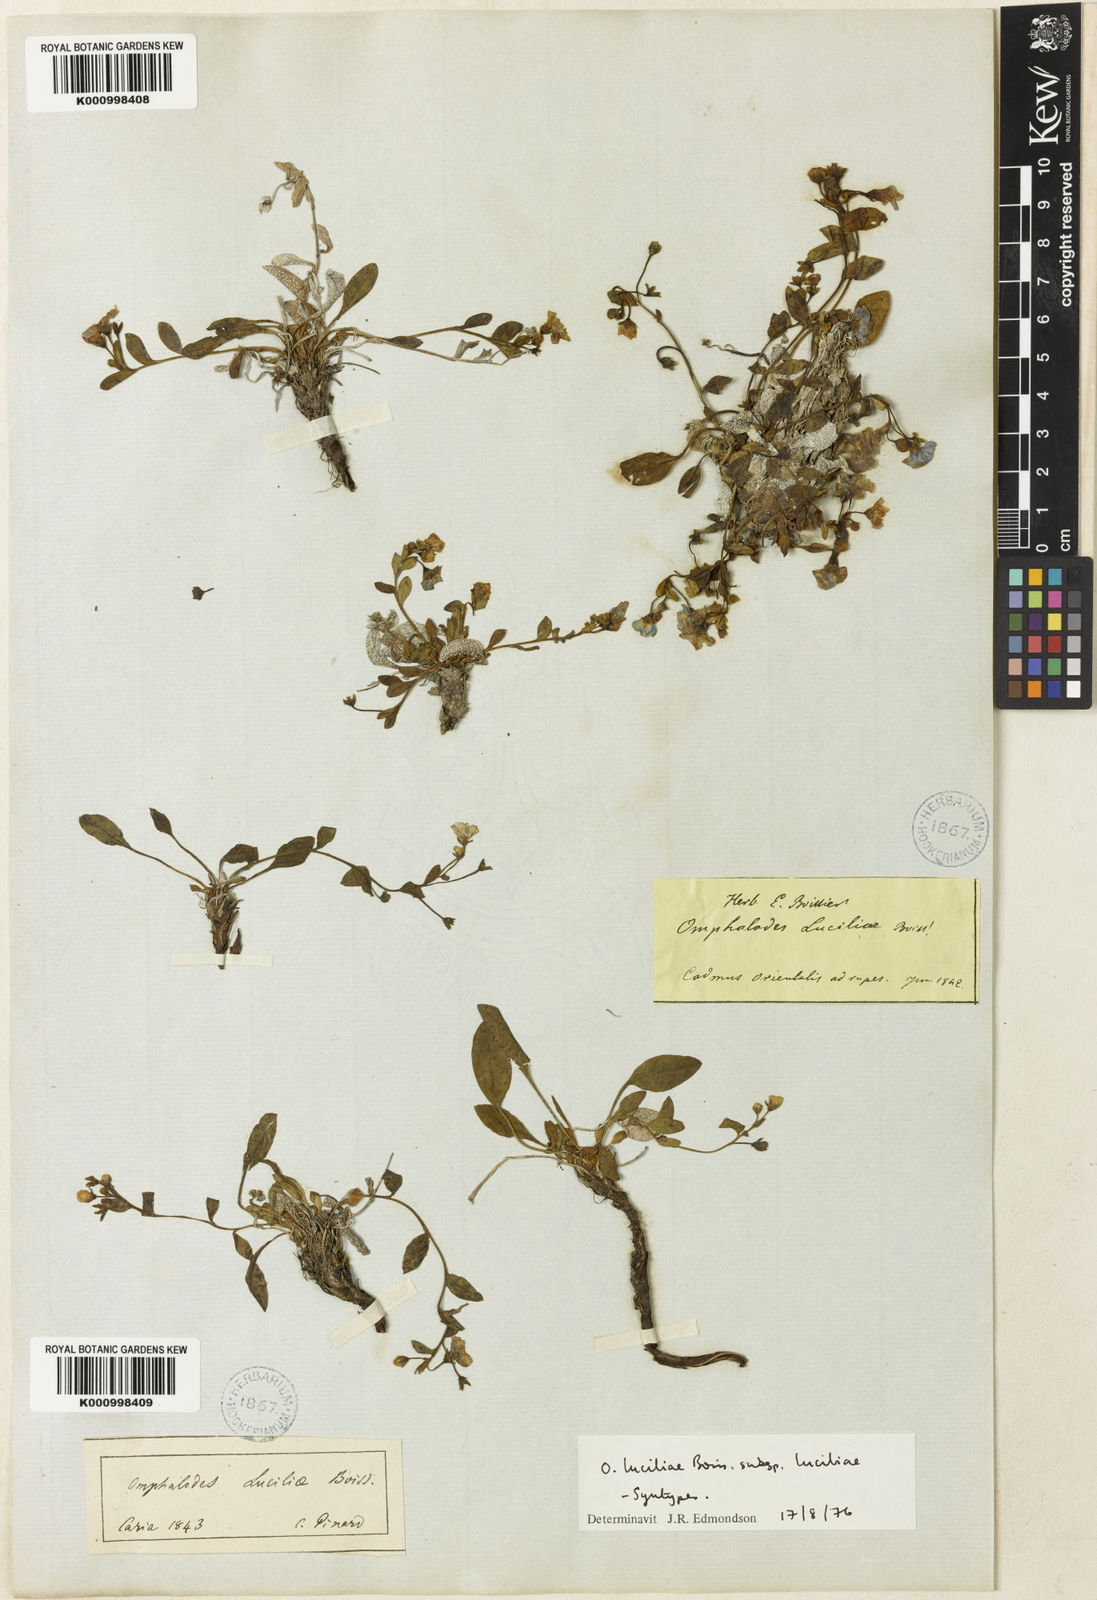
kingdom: Plantae
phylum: Tracheophyta
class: Magnoliopsida
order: Boraginales
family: Boraginaceae
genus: Omphalodes
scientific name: Omphalodes luciliae
